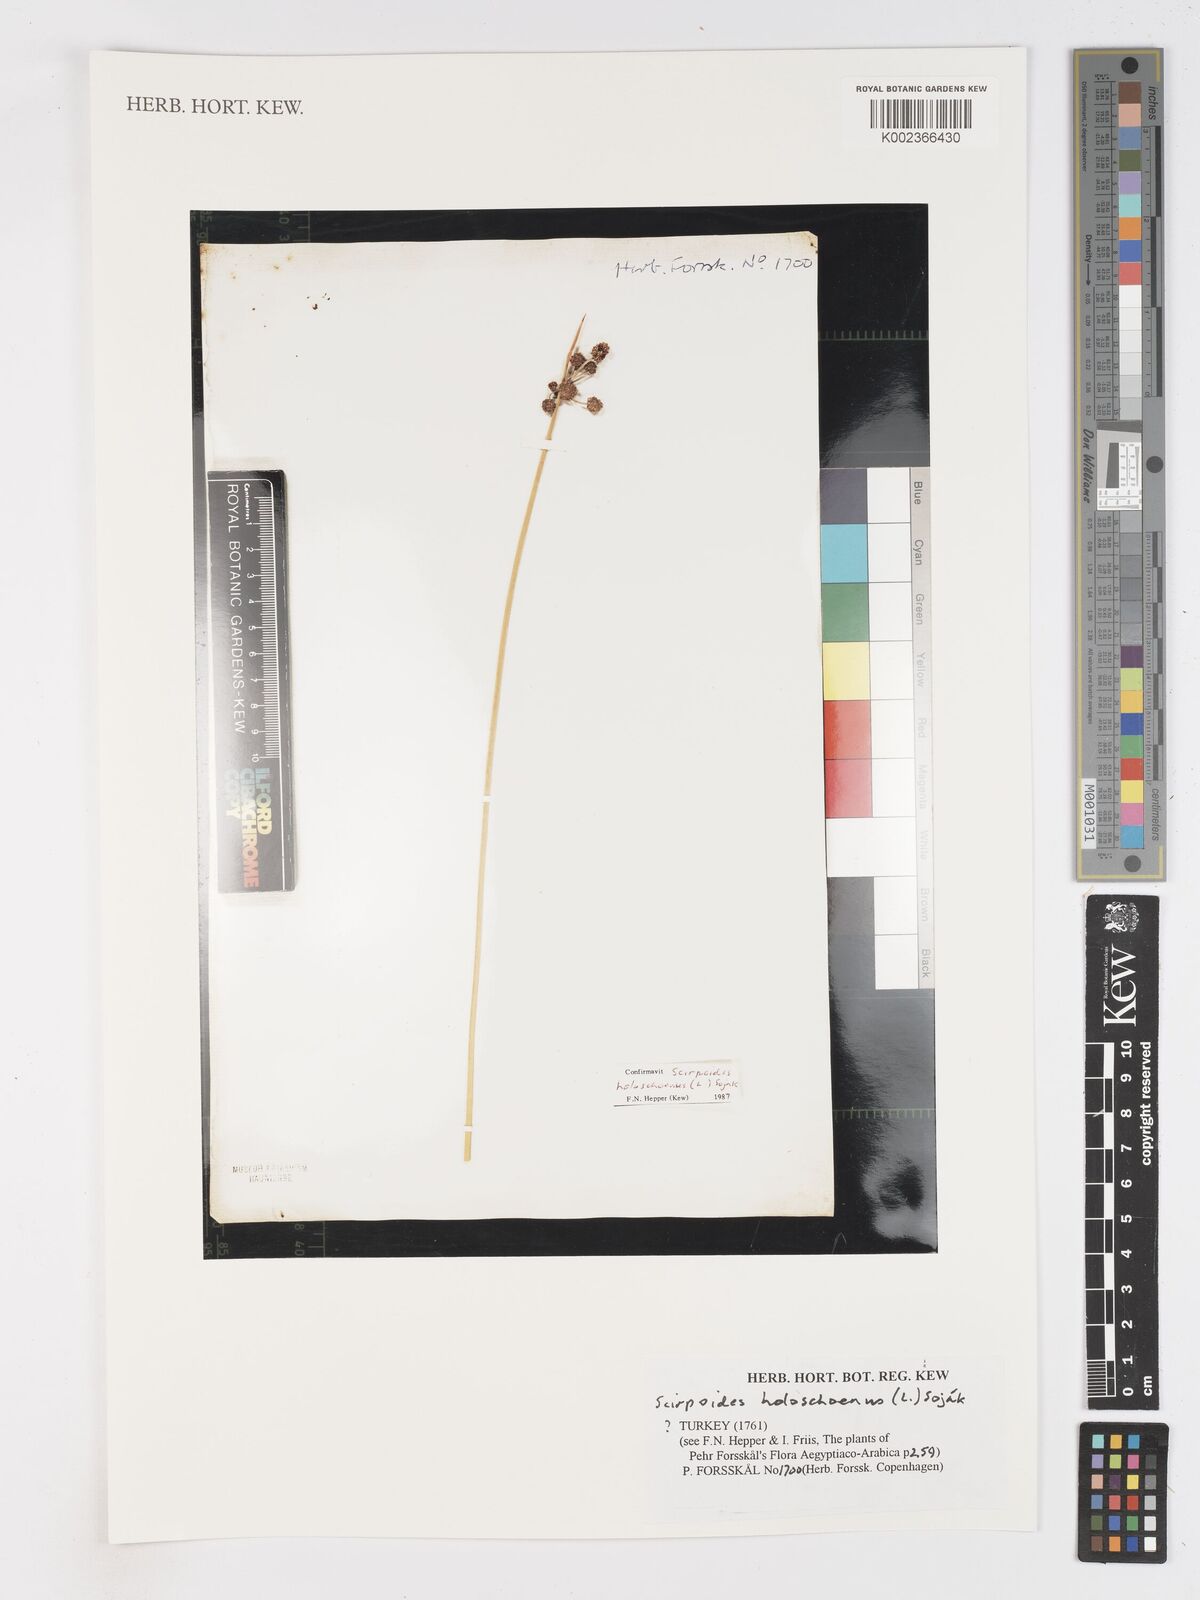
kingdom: Plantae
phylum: Tracheophyta
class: Liliopsida
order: Poales
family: Cyperaceae
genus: Scirpoides
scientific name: Scirpoides holoschoenus
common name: Round-headed club-rush
